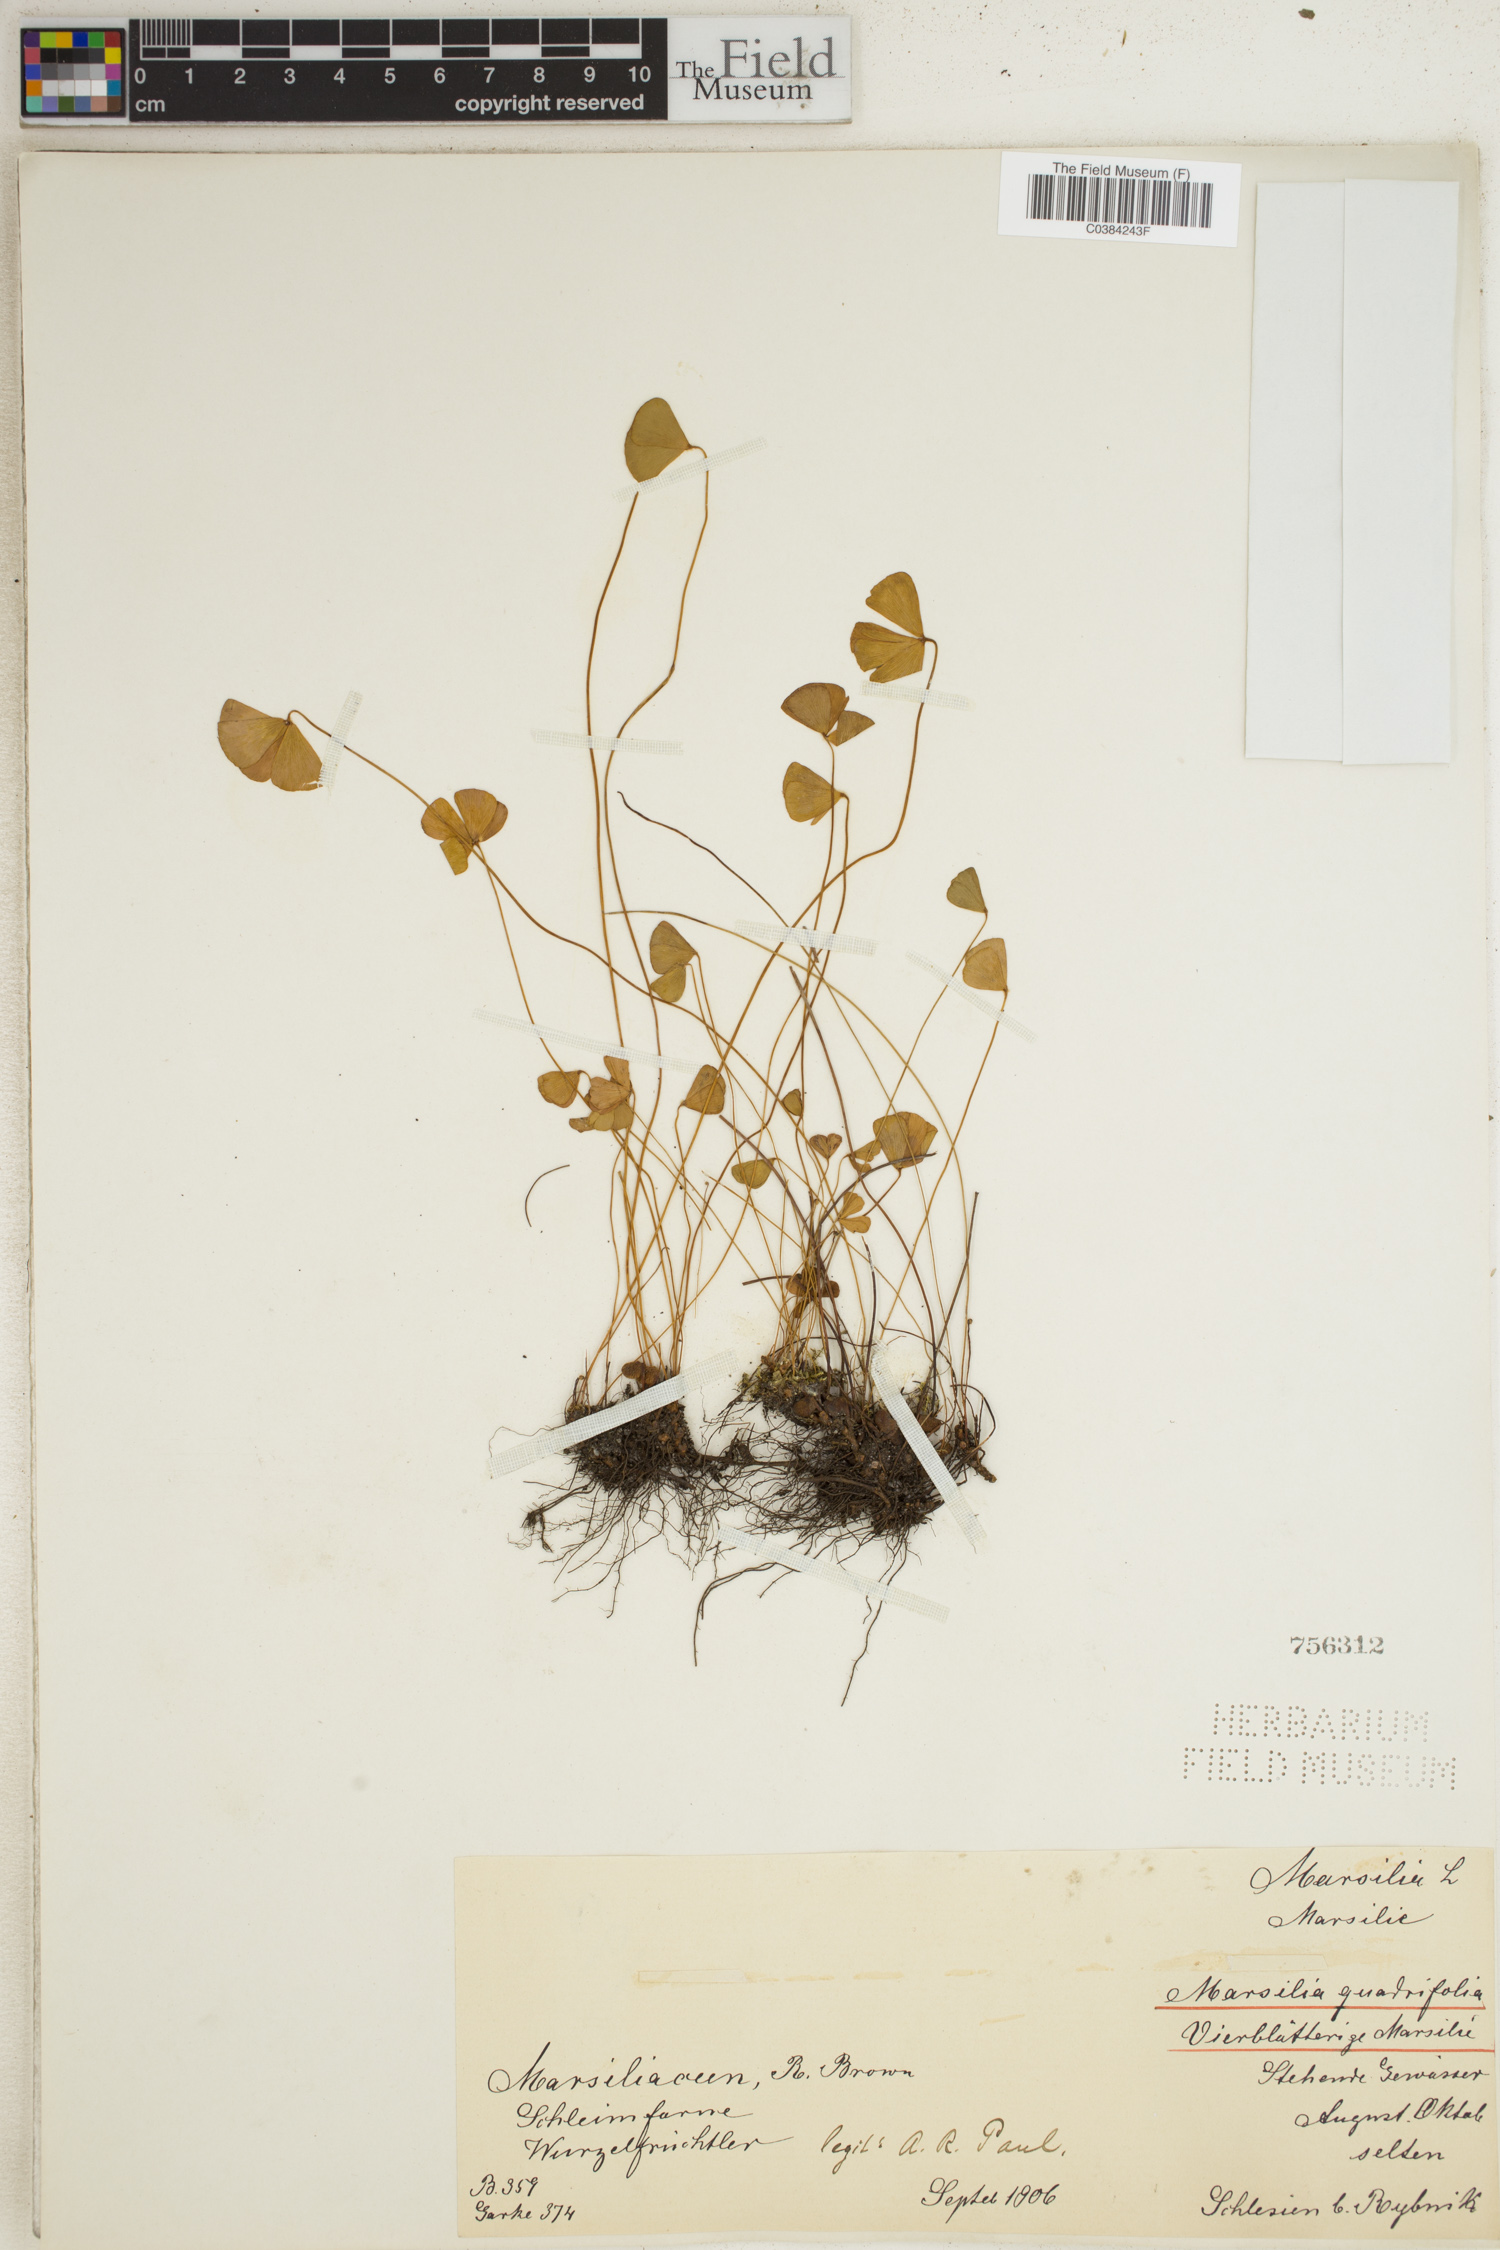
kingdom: Plantae
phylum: Tracheophyta
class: Polypodiopsida
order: Salviniales
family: Marsileaceae
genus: Marsilea
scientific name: Marsilea quadrifolia
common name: Water shamrock
